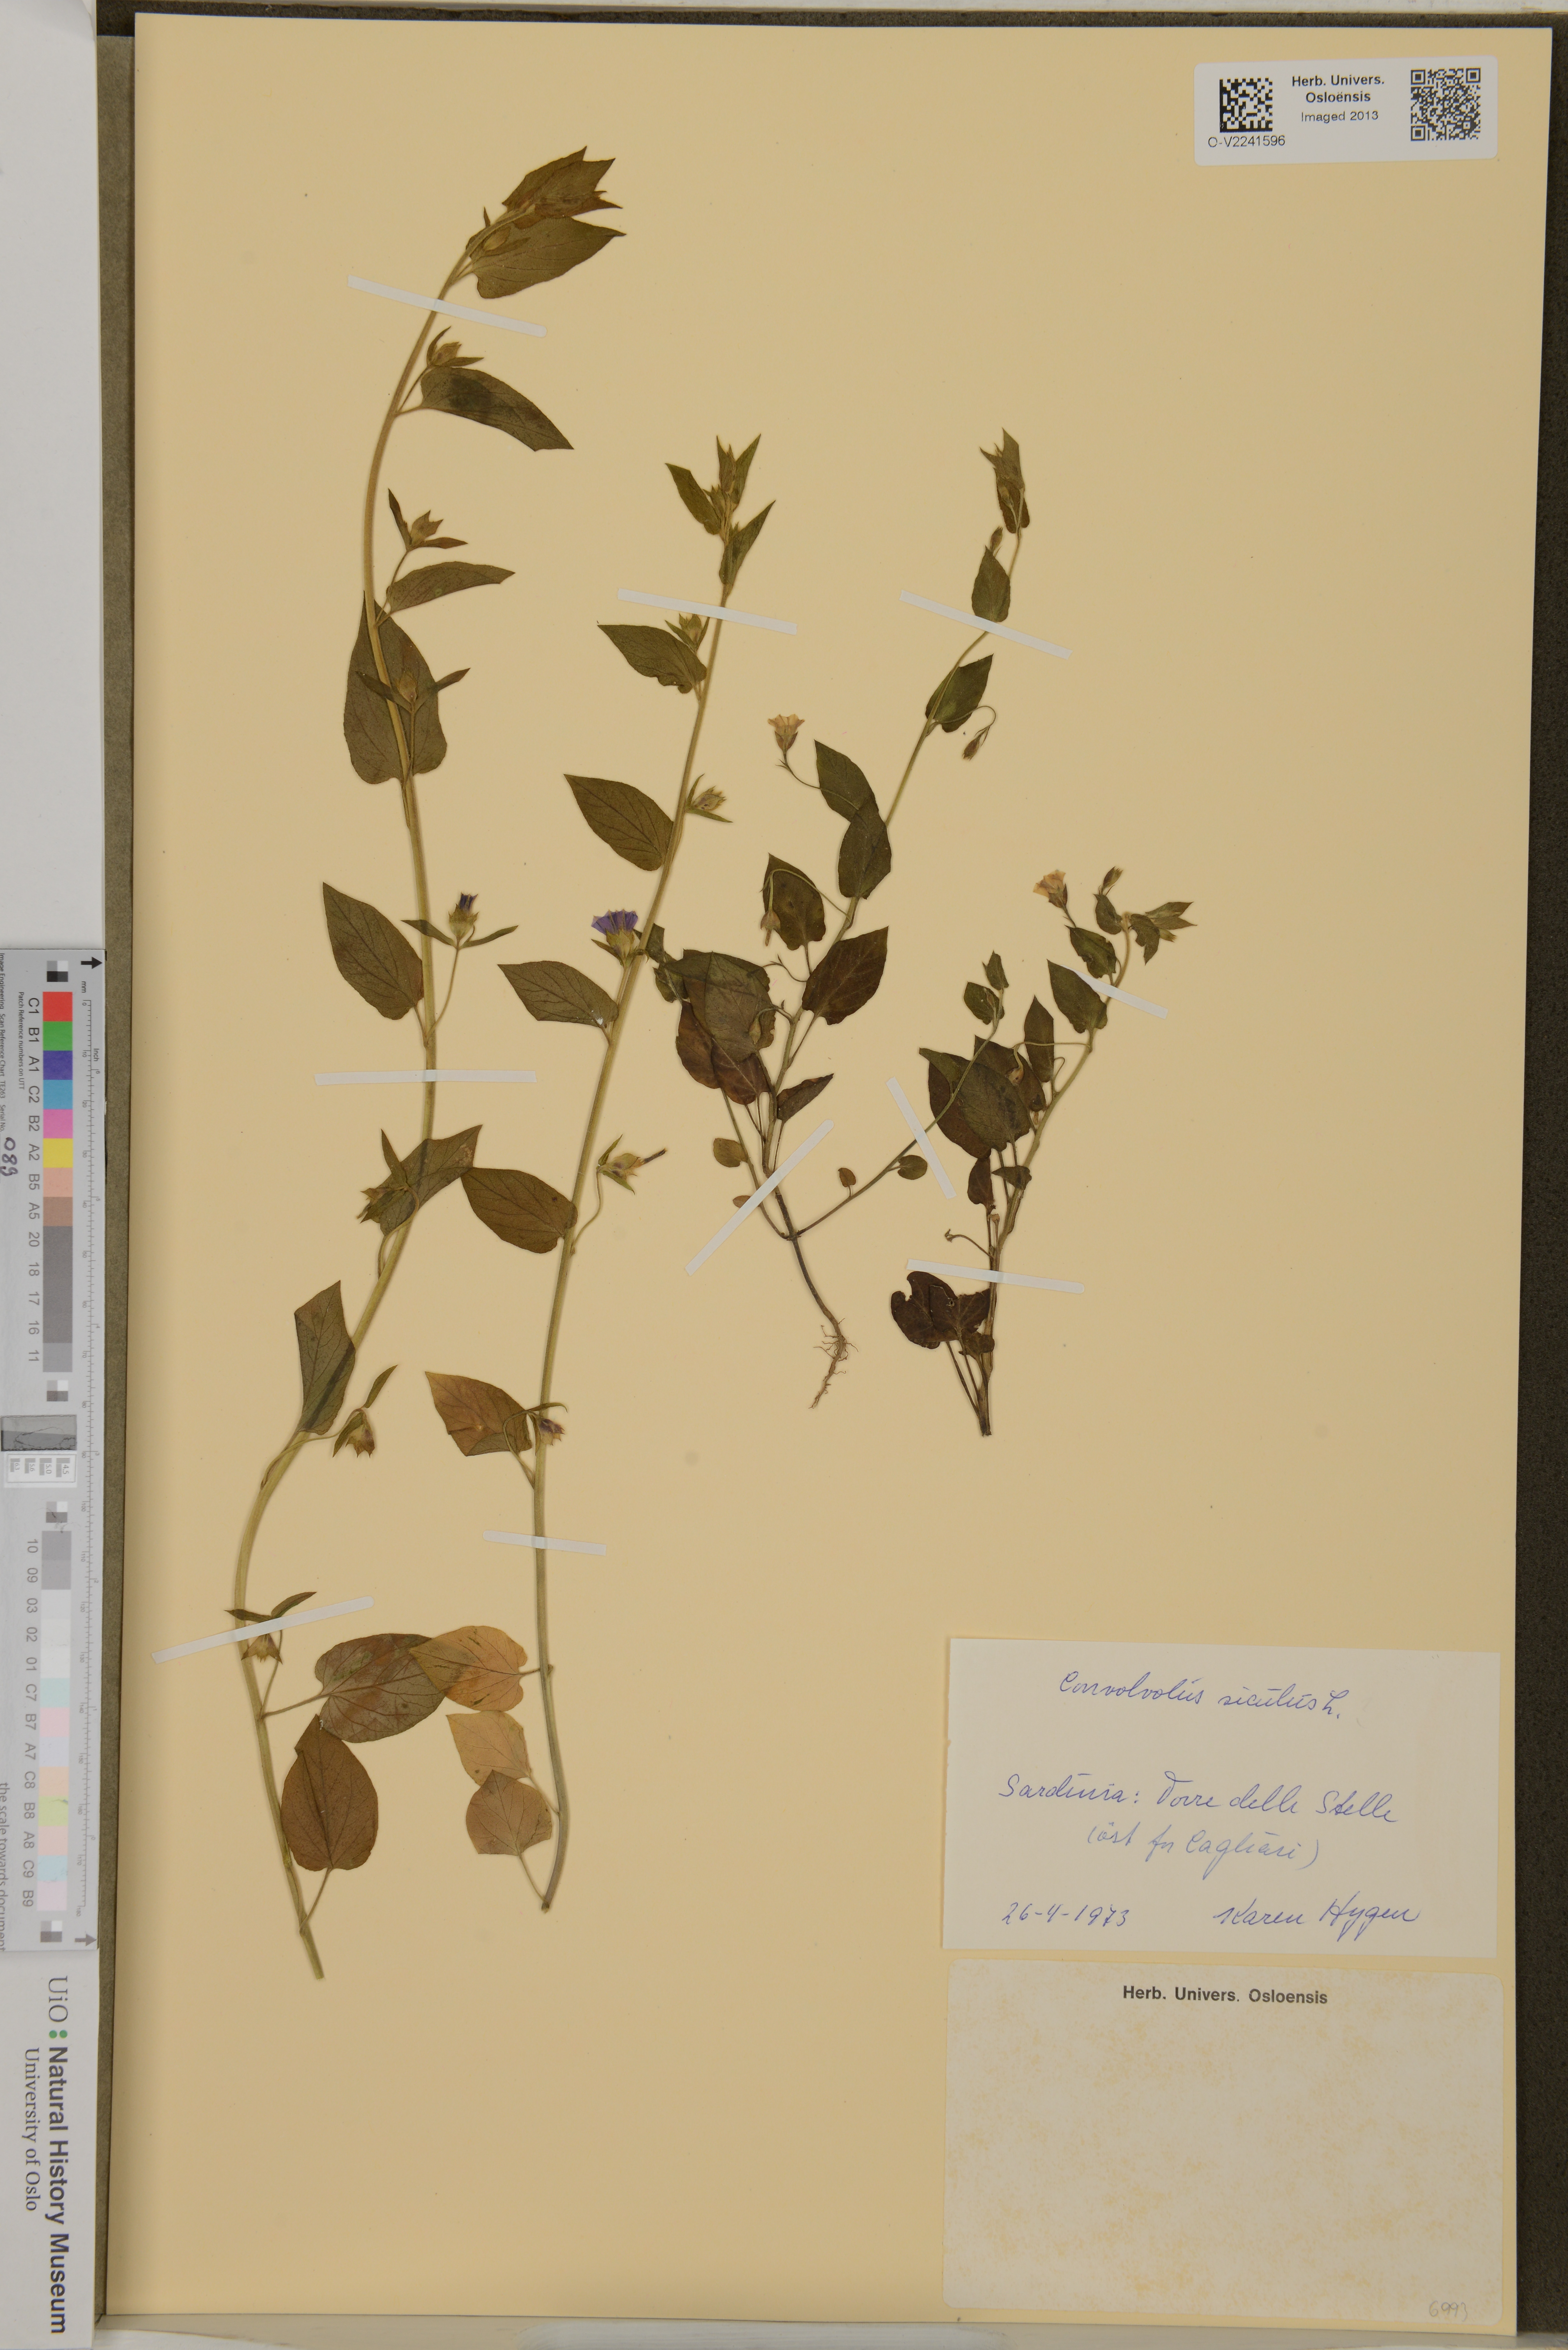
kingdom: Plantae
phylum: Tracheophyta
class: Magnoliopsida
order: Solanales
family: Convolvulaceae
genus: Convolvulus
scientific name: Convolvulus siculus
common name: Small blue-convolvulus
